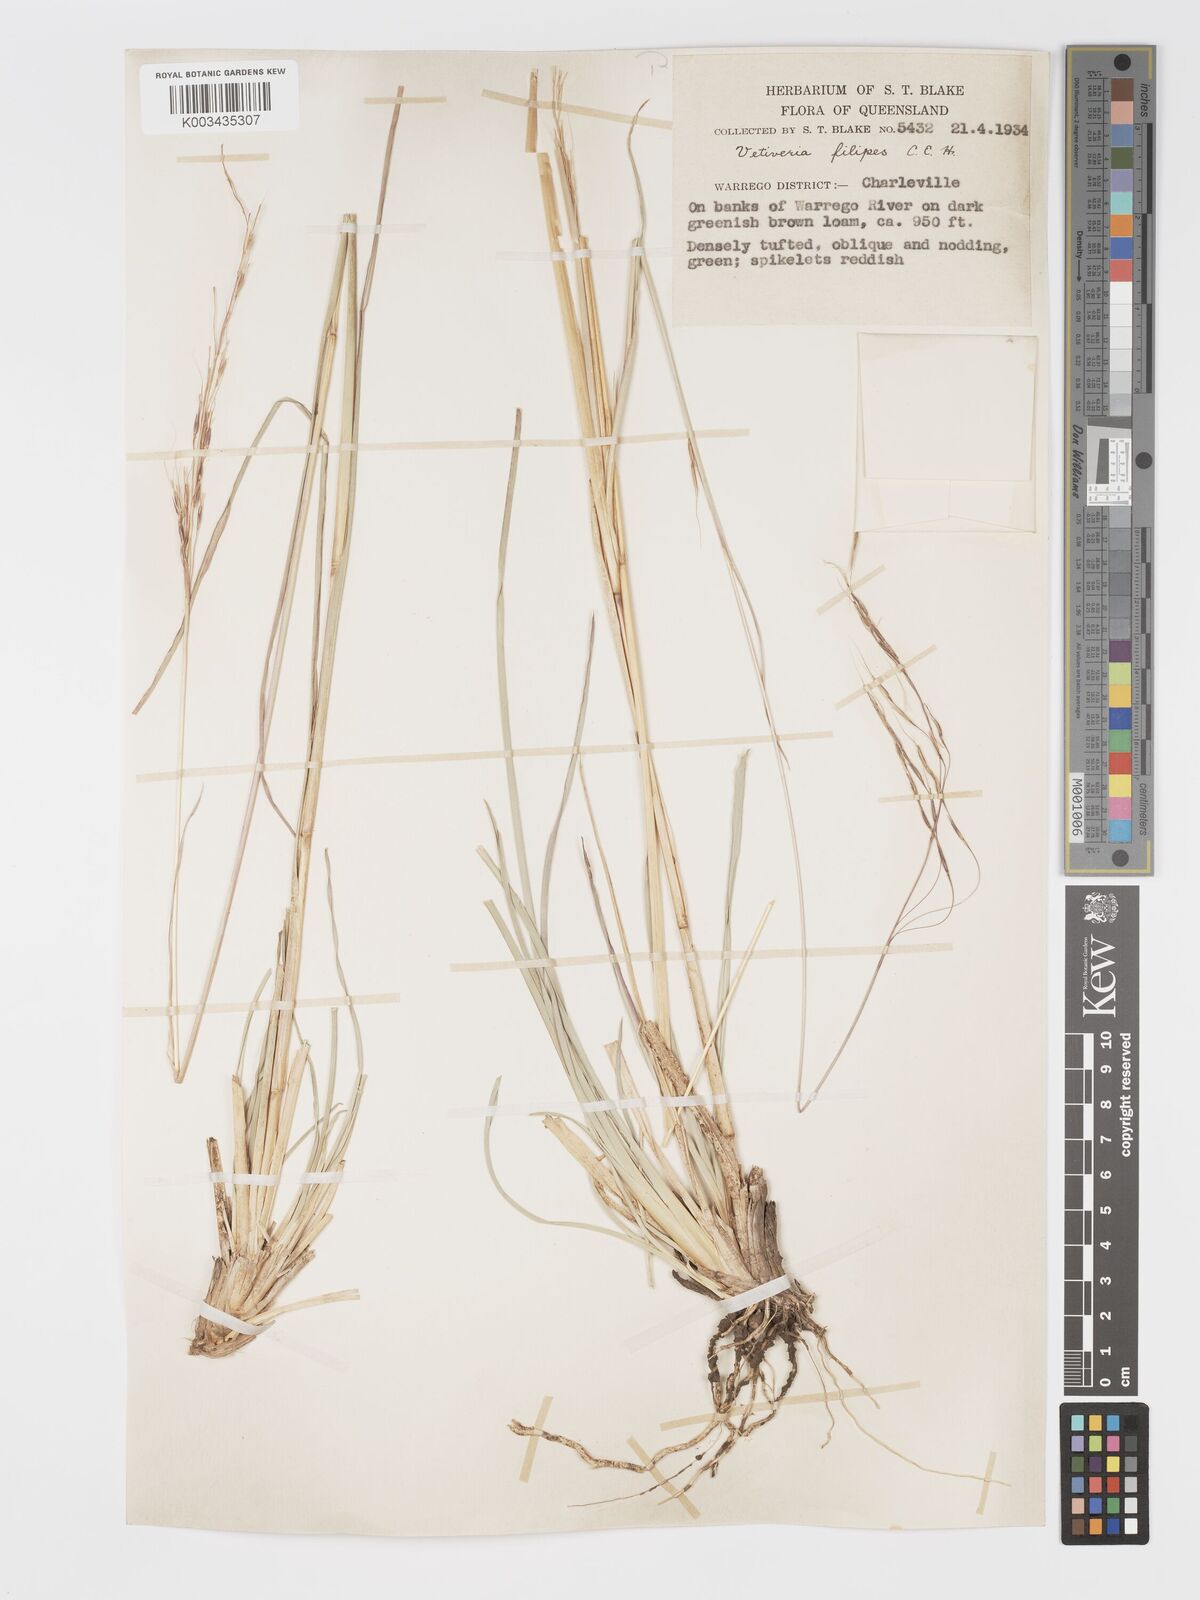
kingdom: Plantae
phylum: Tracheophyta
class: Liliopsida
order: Poales
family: Poaceae
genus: Chrysopogon
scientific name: Chrysopogon filipes
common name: Australian vetiver
